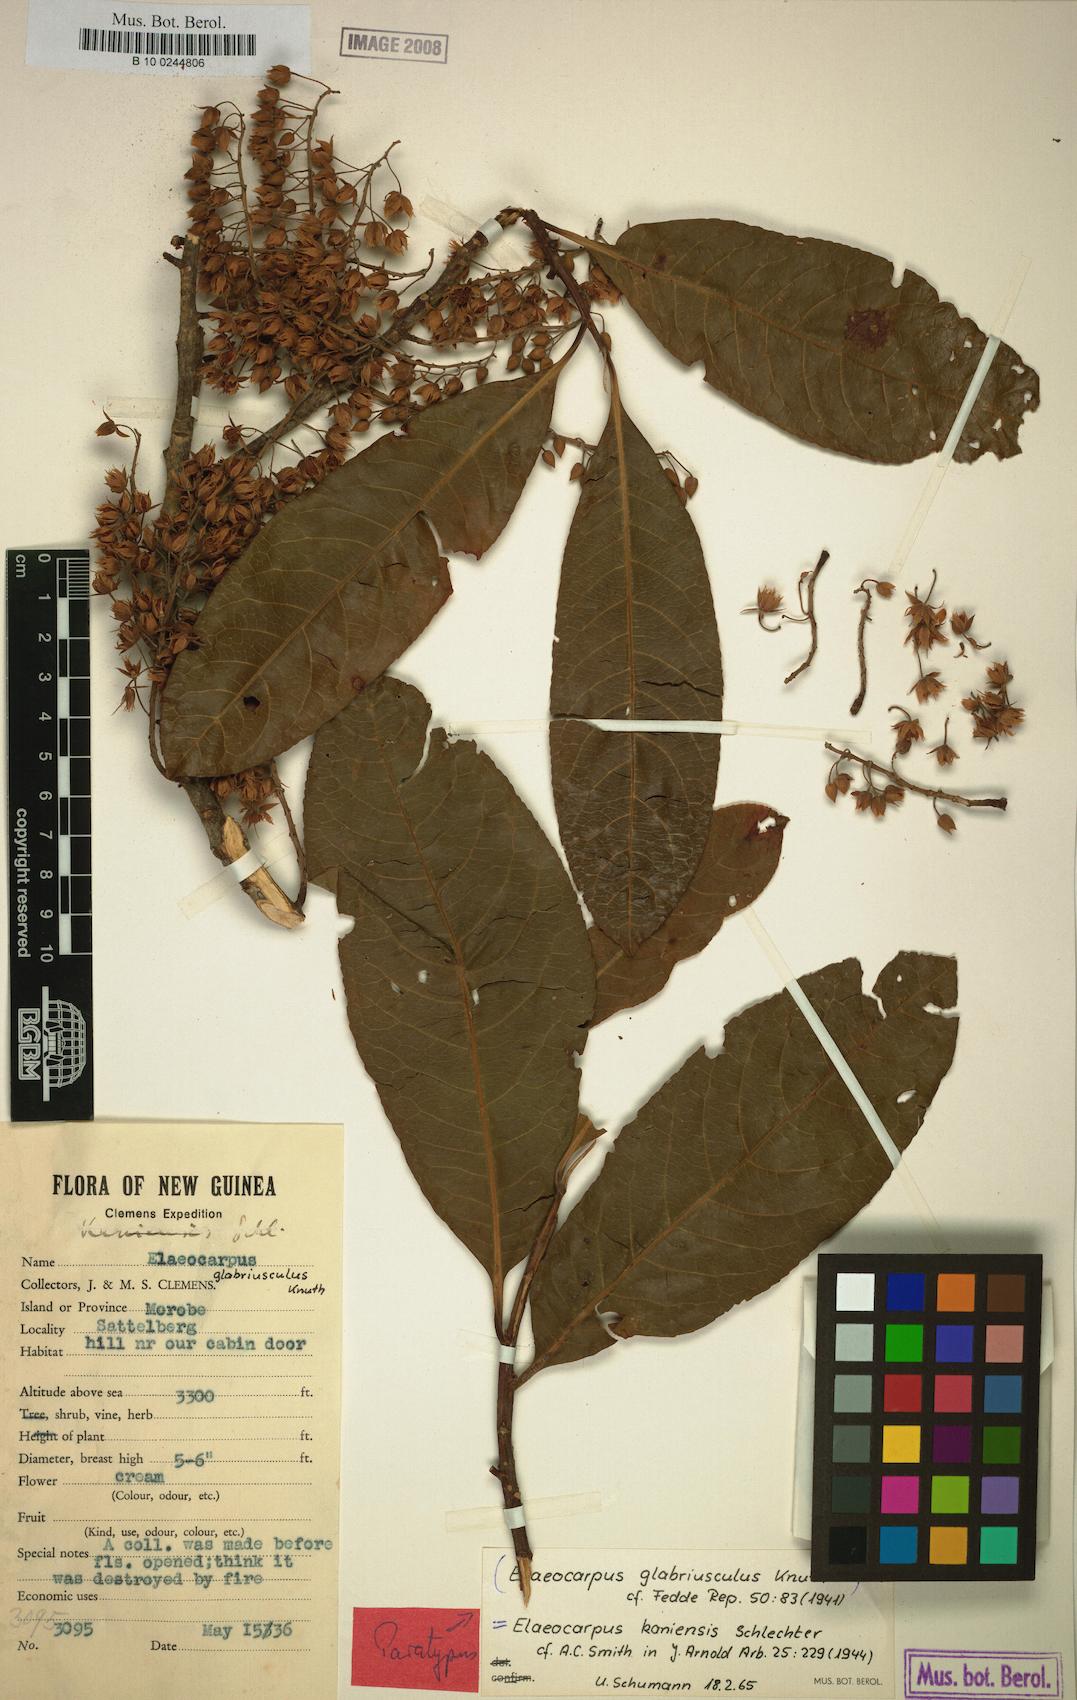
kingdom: Plantae
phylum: Tracheophyta
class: Magnoliopsida
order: Oxalidales
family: Elaeocarpaceae
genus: Elaeocarpus
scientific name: Elaeocarpus kaniensis
